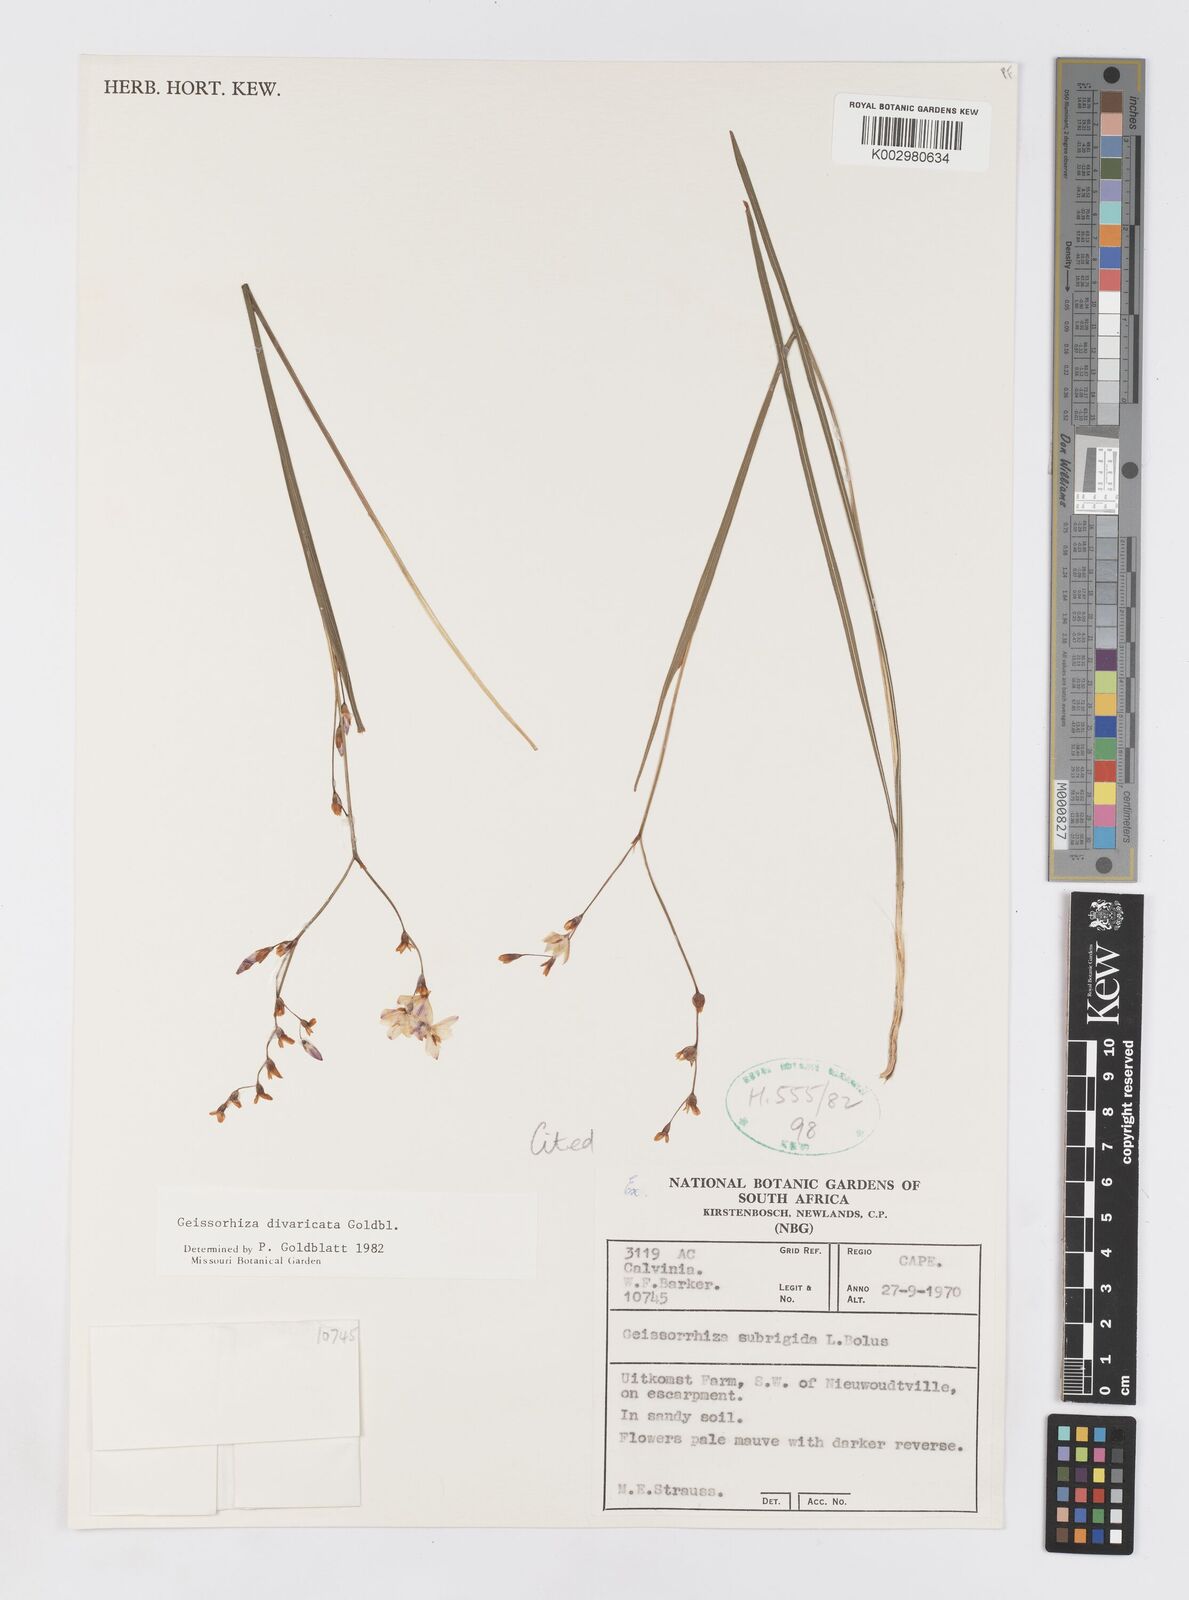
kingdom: Plantae
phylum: Tracheophyta
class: Liliopsida
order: Asparagales
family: Iridaceae
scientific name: Iridaceae
